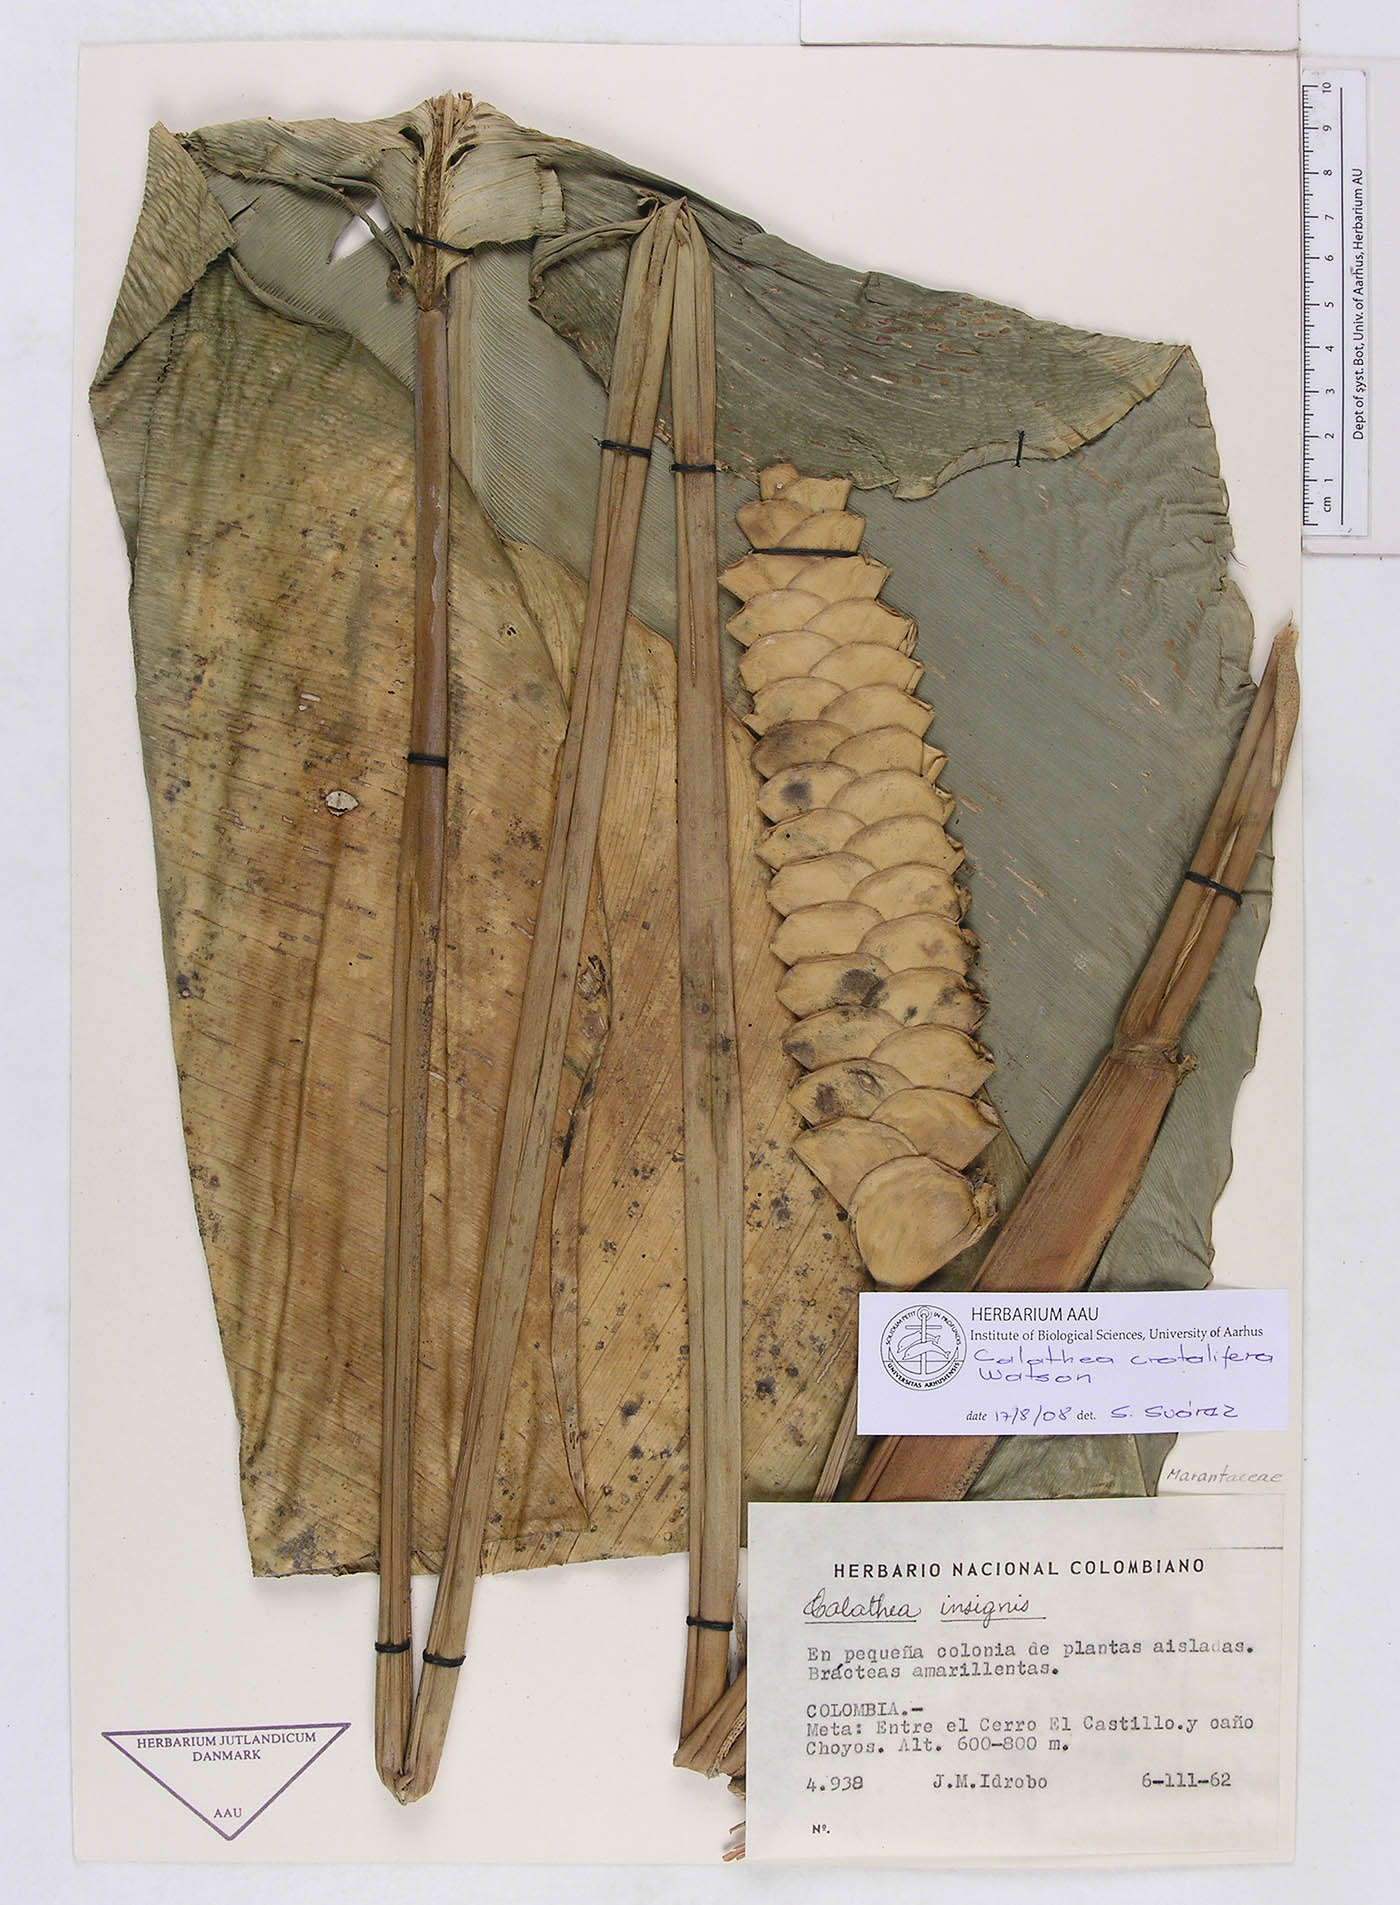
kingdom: Plantae
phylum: Tracheophyta
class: Liliopsida
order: Zingiberales
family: Marantaceae
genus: Calathea
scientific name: Calathea crotalifera
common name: Rattlesnake plant
